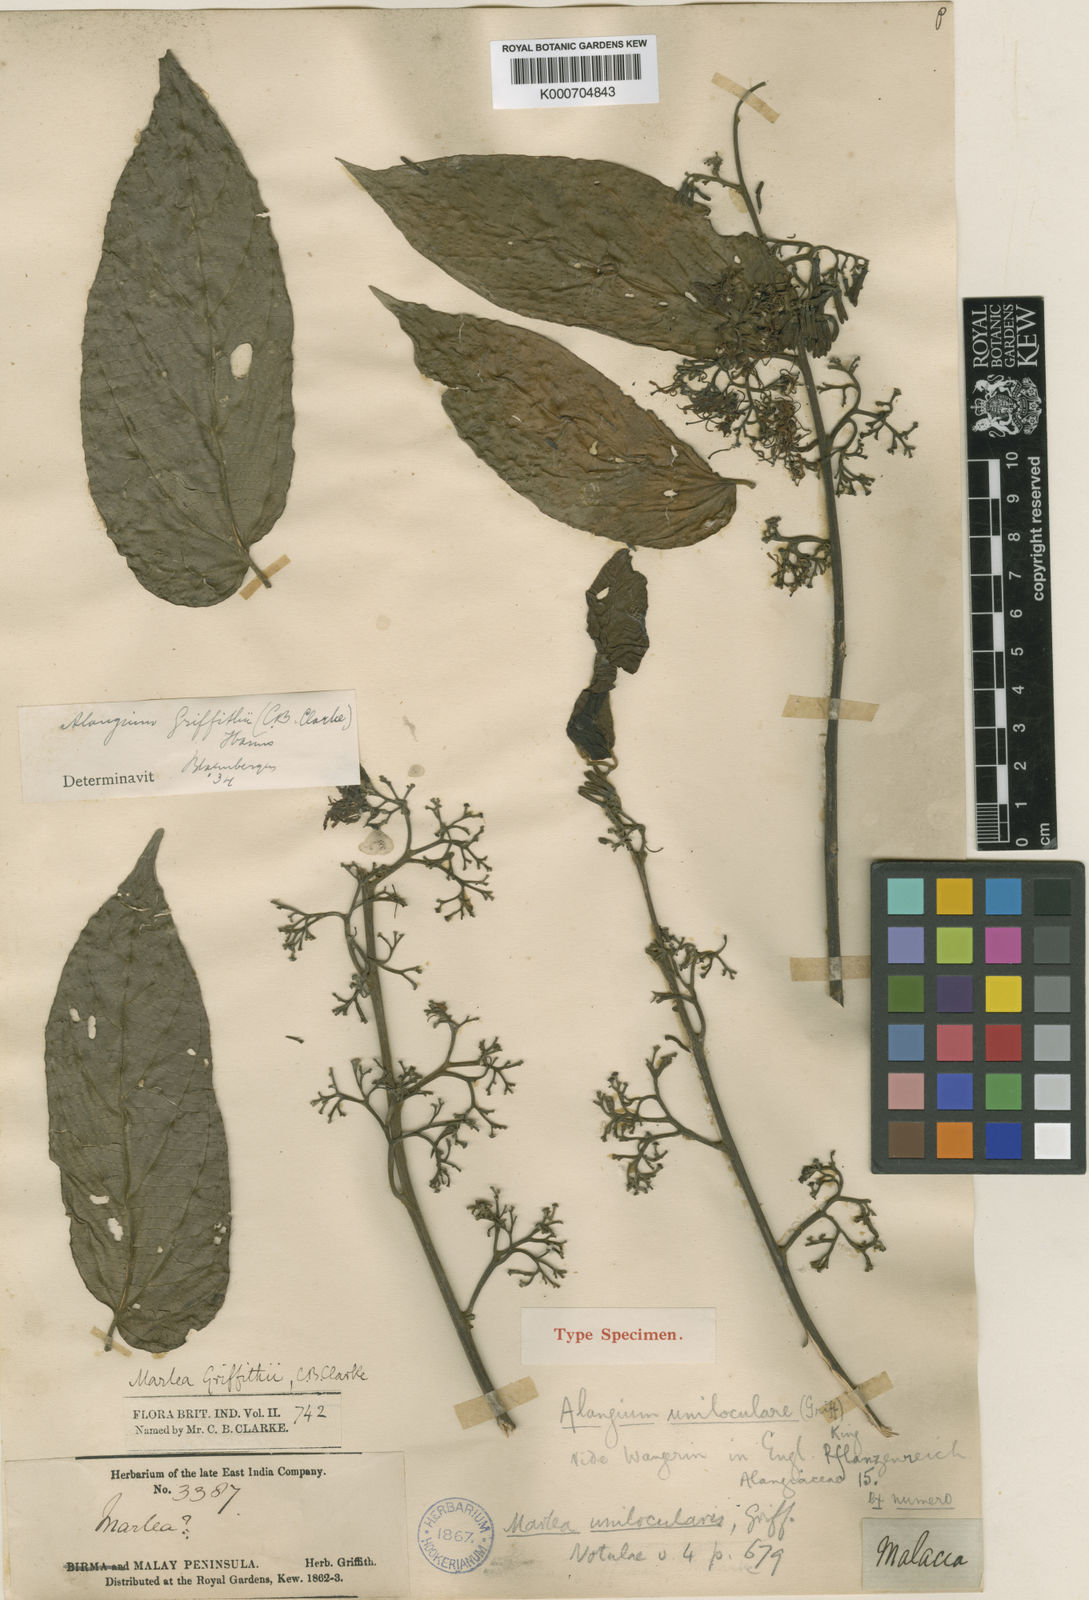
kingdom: Plantae
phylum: Tracheophyta
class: Magnoliopsida
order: Cornales
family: Cornaceae
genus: Alangium
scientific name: Alangium uniloculare
